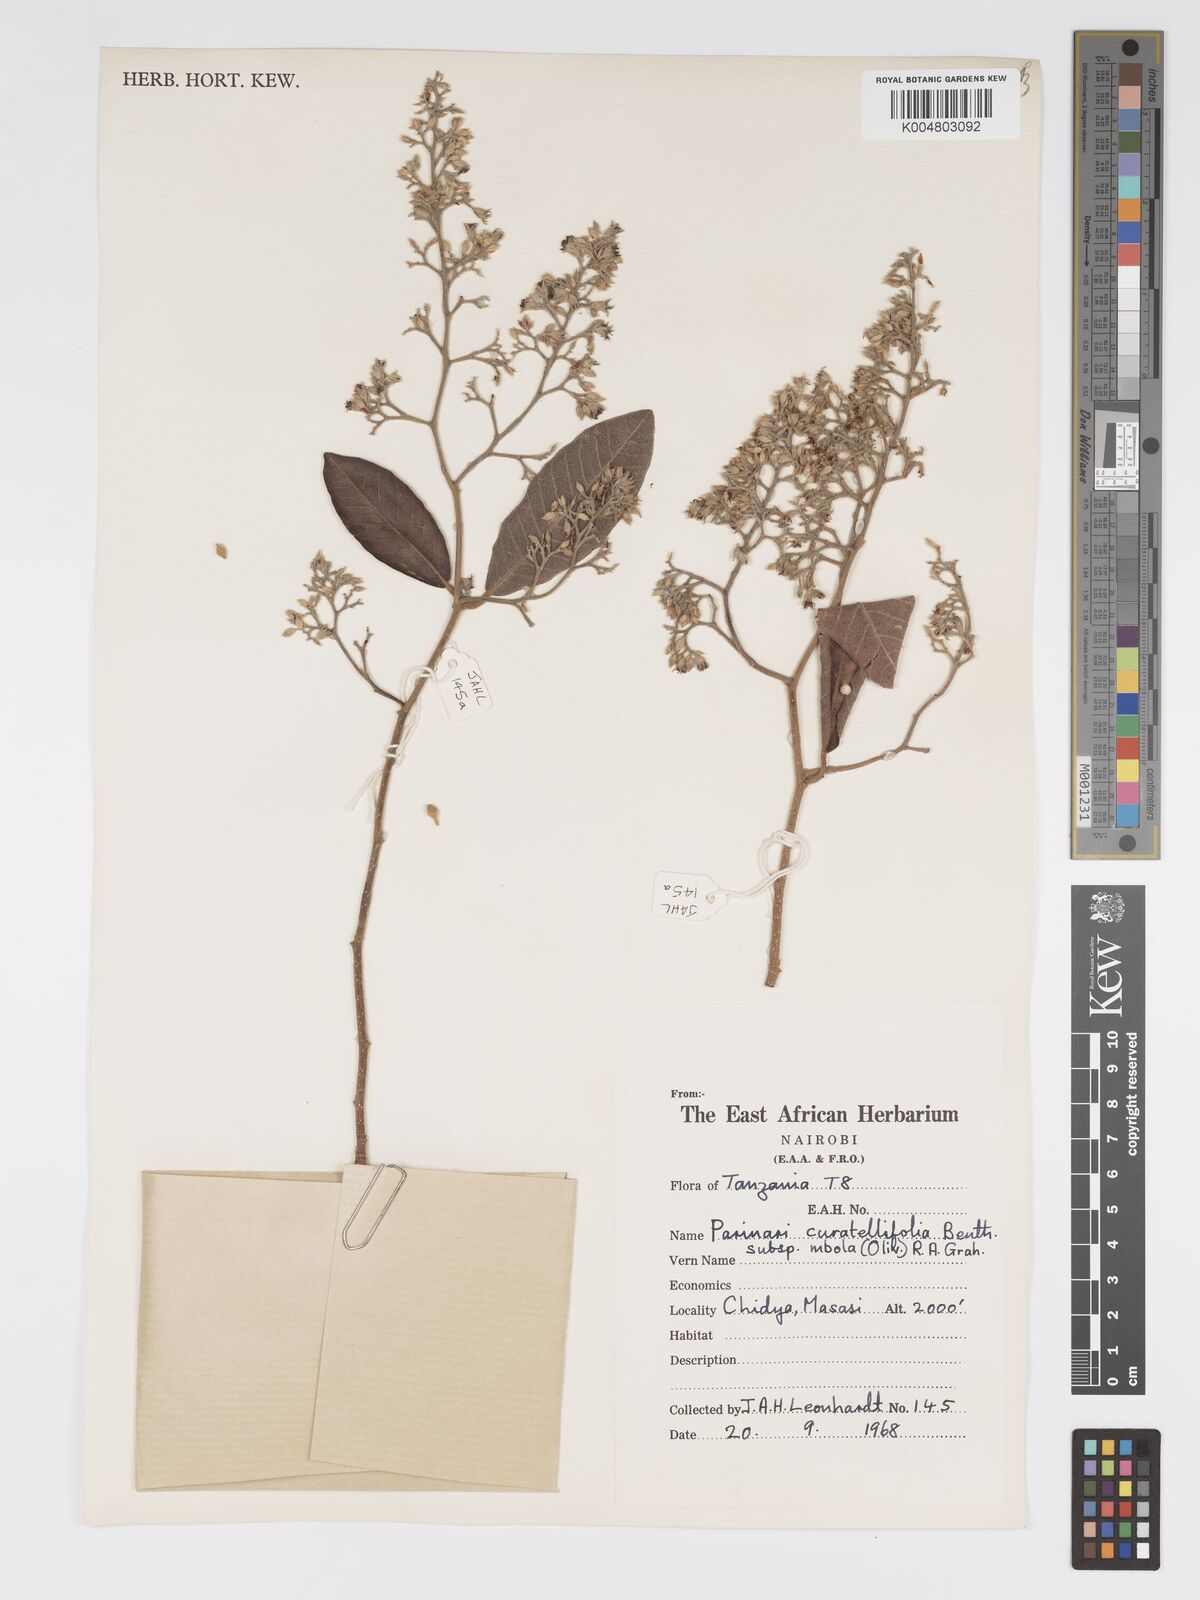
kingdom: Plantae
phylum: Tracheophyta
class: Magnoliopsida
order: Malpighiales
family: Chrysobalanaceae
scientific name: Chrysobalanaceae
